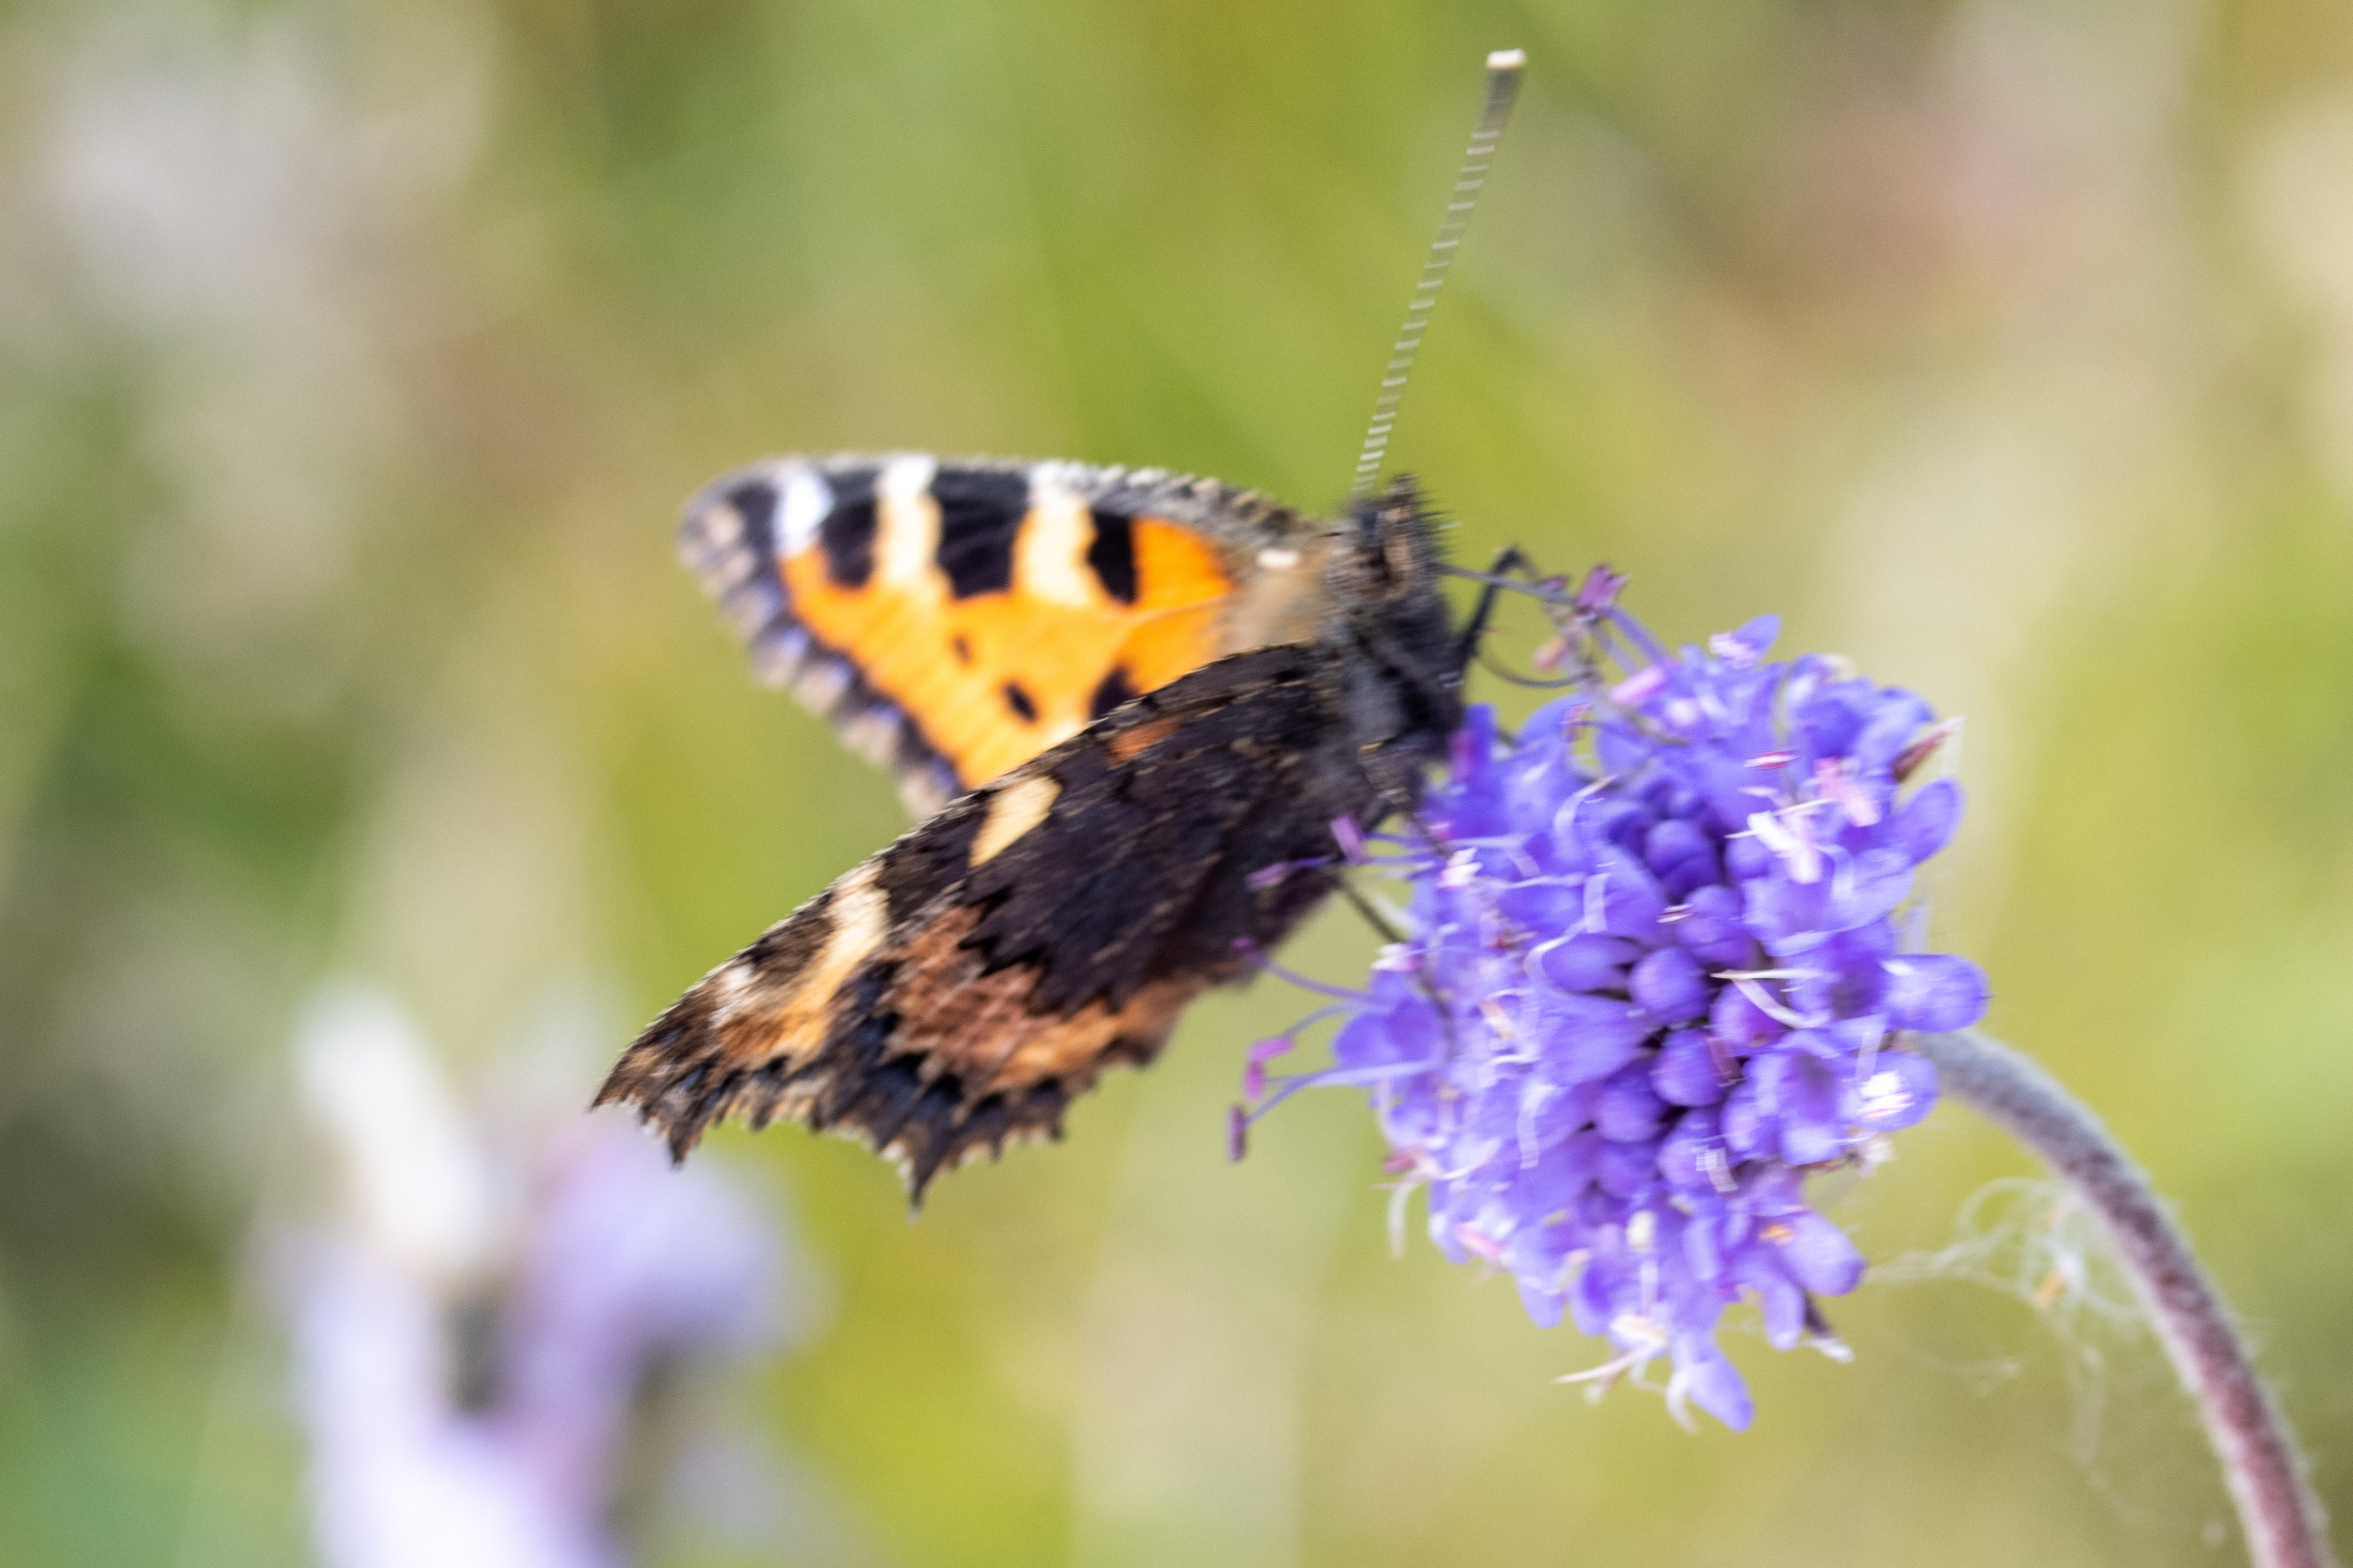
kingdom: Animalia
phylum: Arthropoda
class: Insecta
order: Lepidoptera
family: Nymphalidae
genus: Aglais
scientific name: Aglais urticae
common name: Nældens takvinge
